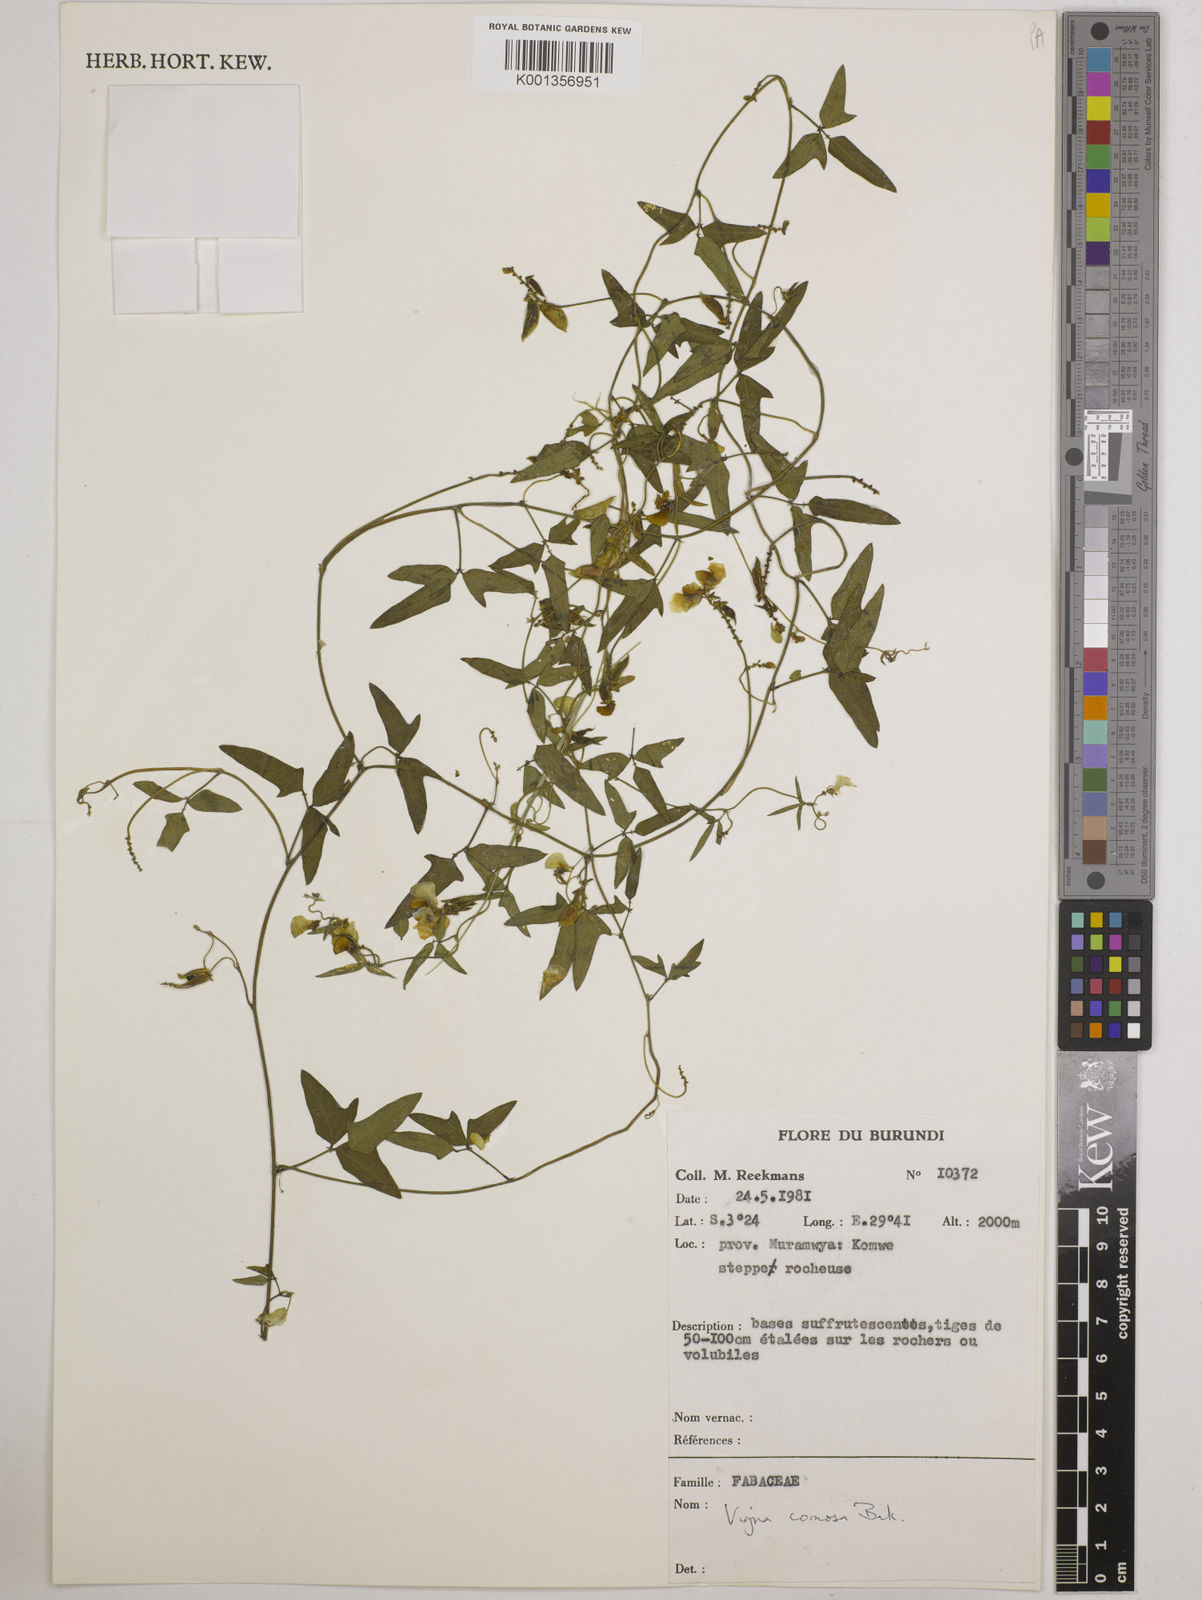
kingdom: Plantae
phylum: Tracheophyta
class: Magnoliopsida
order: Fabales
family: Fabaceae
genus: Vigna
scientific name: Vigna comosa
